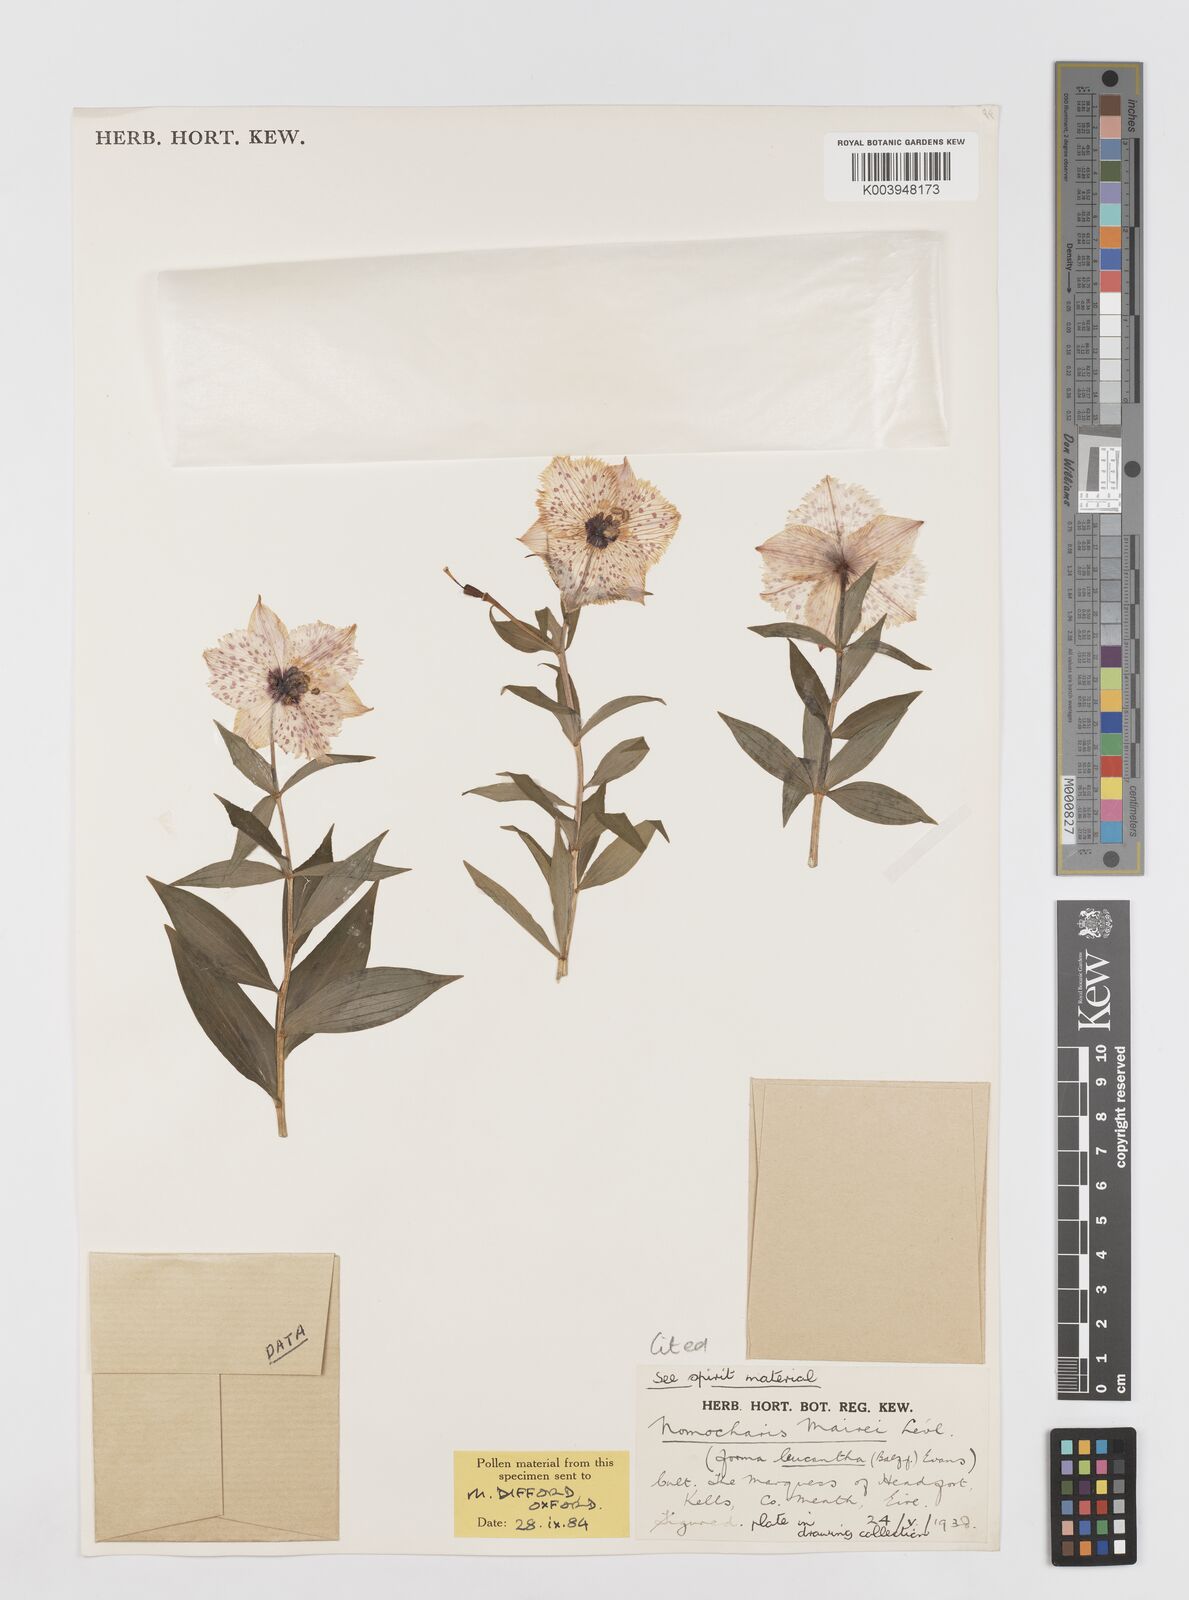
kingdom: Plantae
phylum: Tracheophyta
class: Liliopsida
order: Liliales
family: Liliaceae
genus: Lilium
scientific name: Lilium pardanthinum
